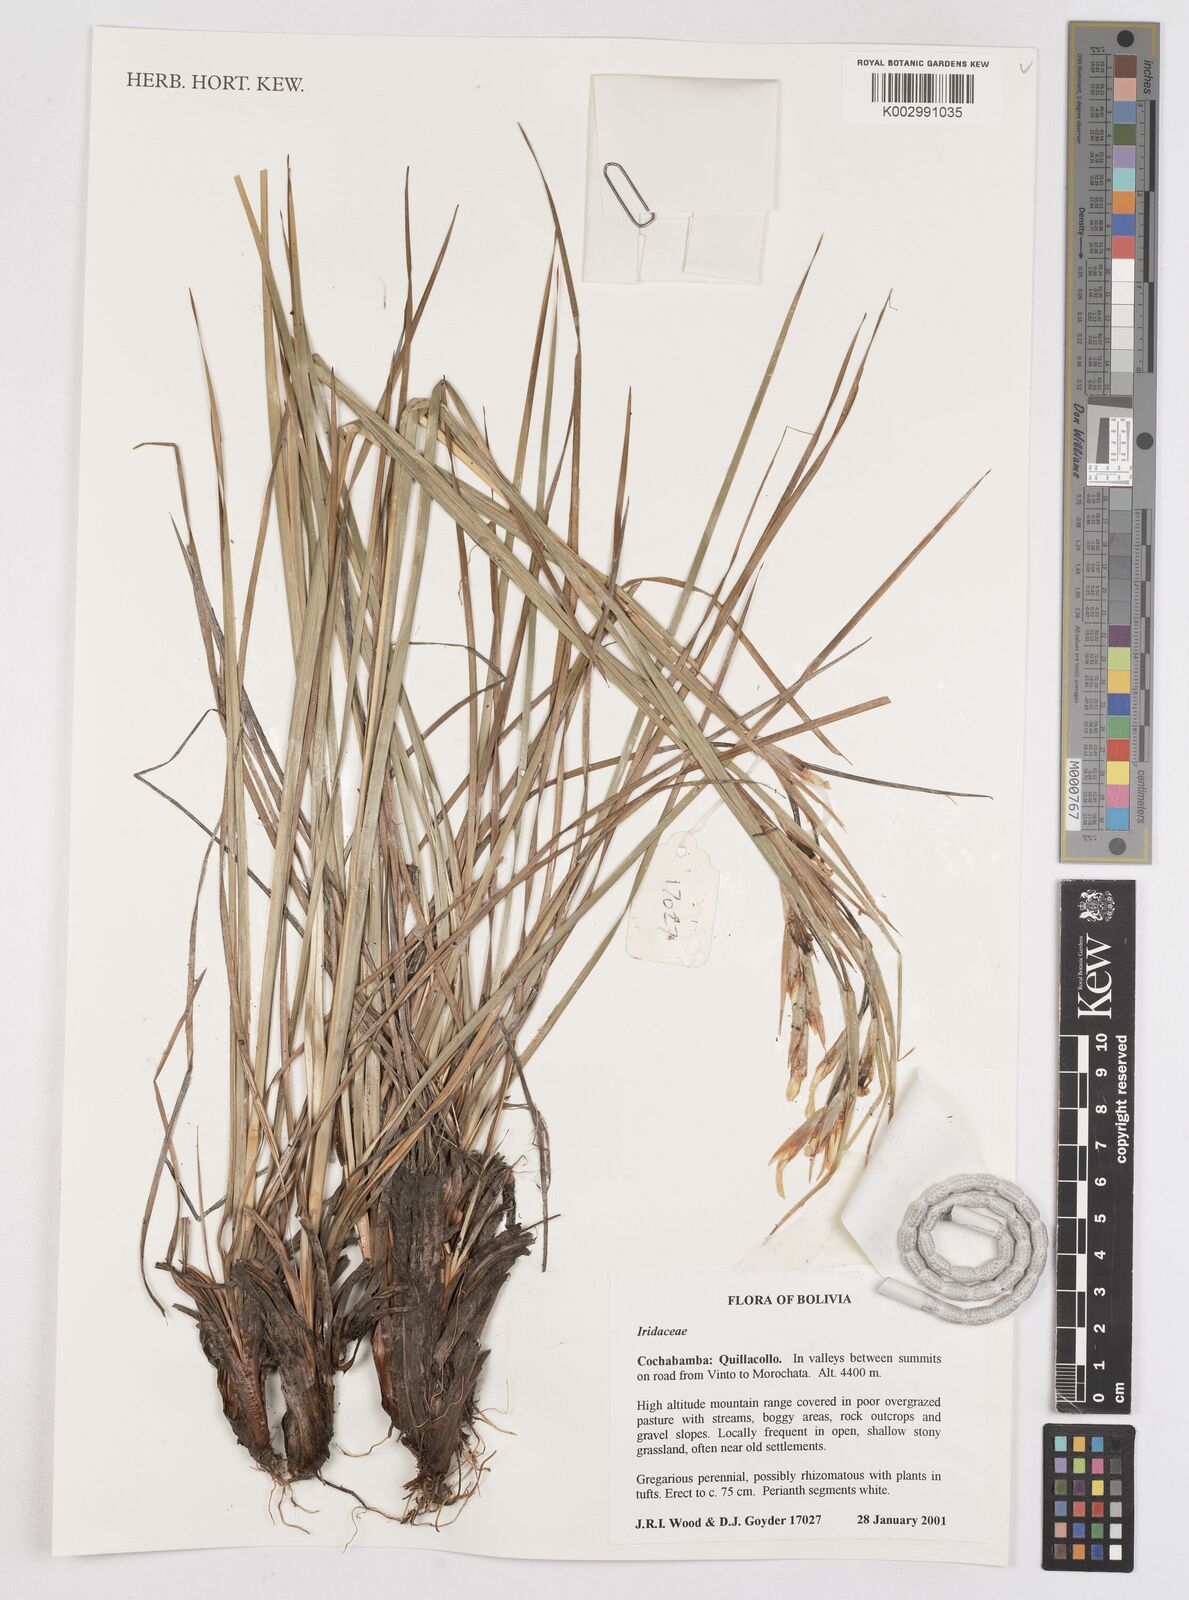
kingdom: Plantae
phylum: Tracheophyta
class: Liliopsida
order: Asparagales
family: Iridaceae
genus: Orthrosanthus
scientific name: Orthrosanthus occissapungus
